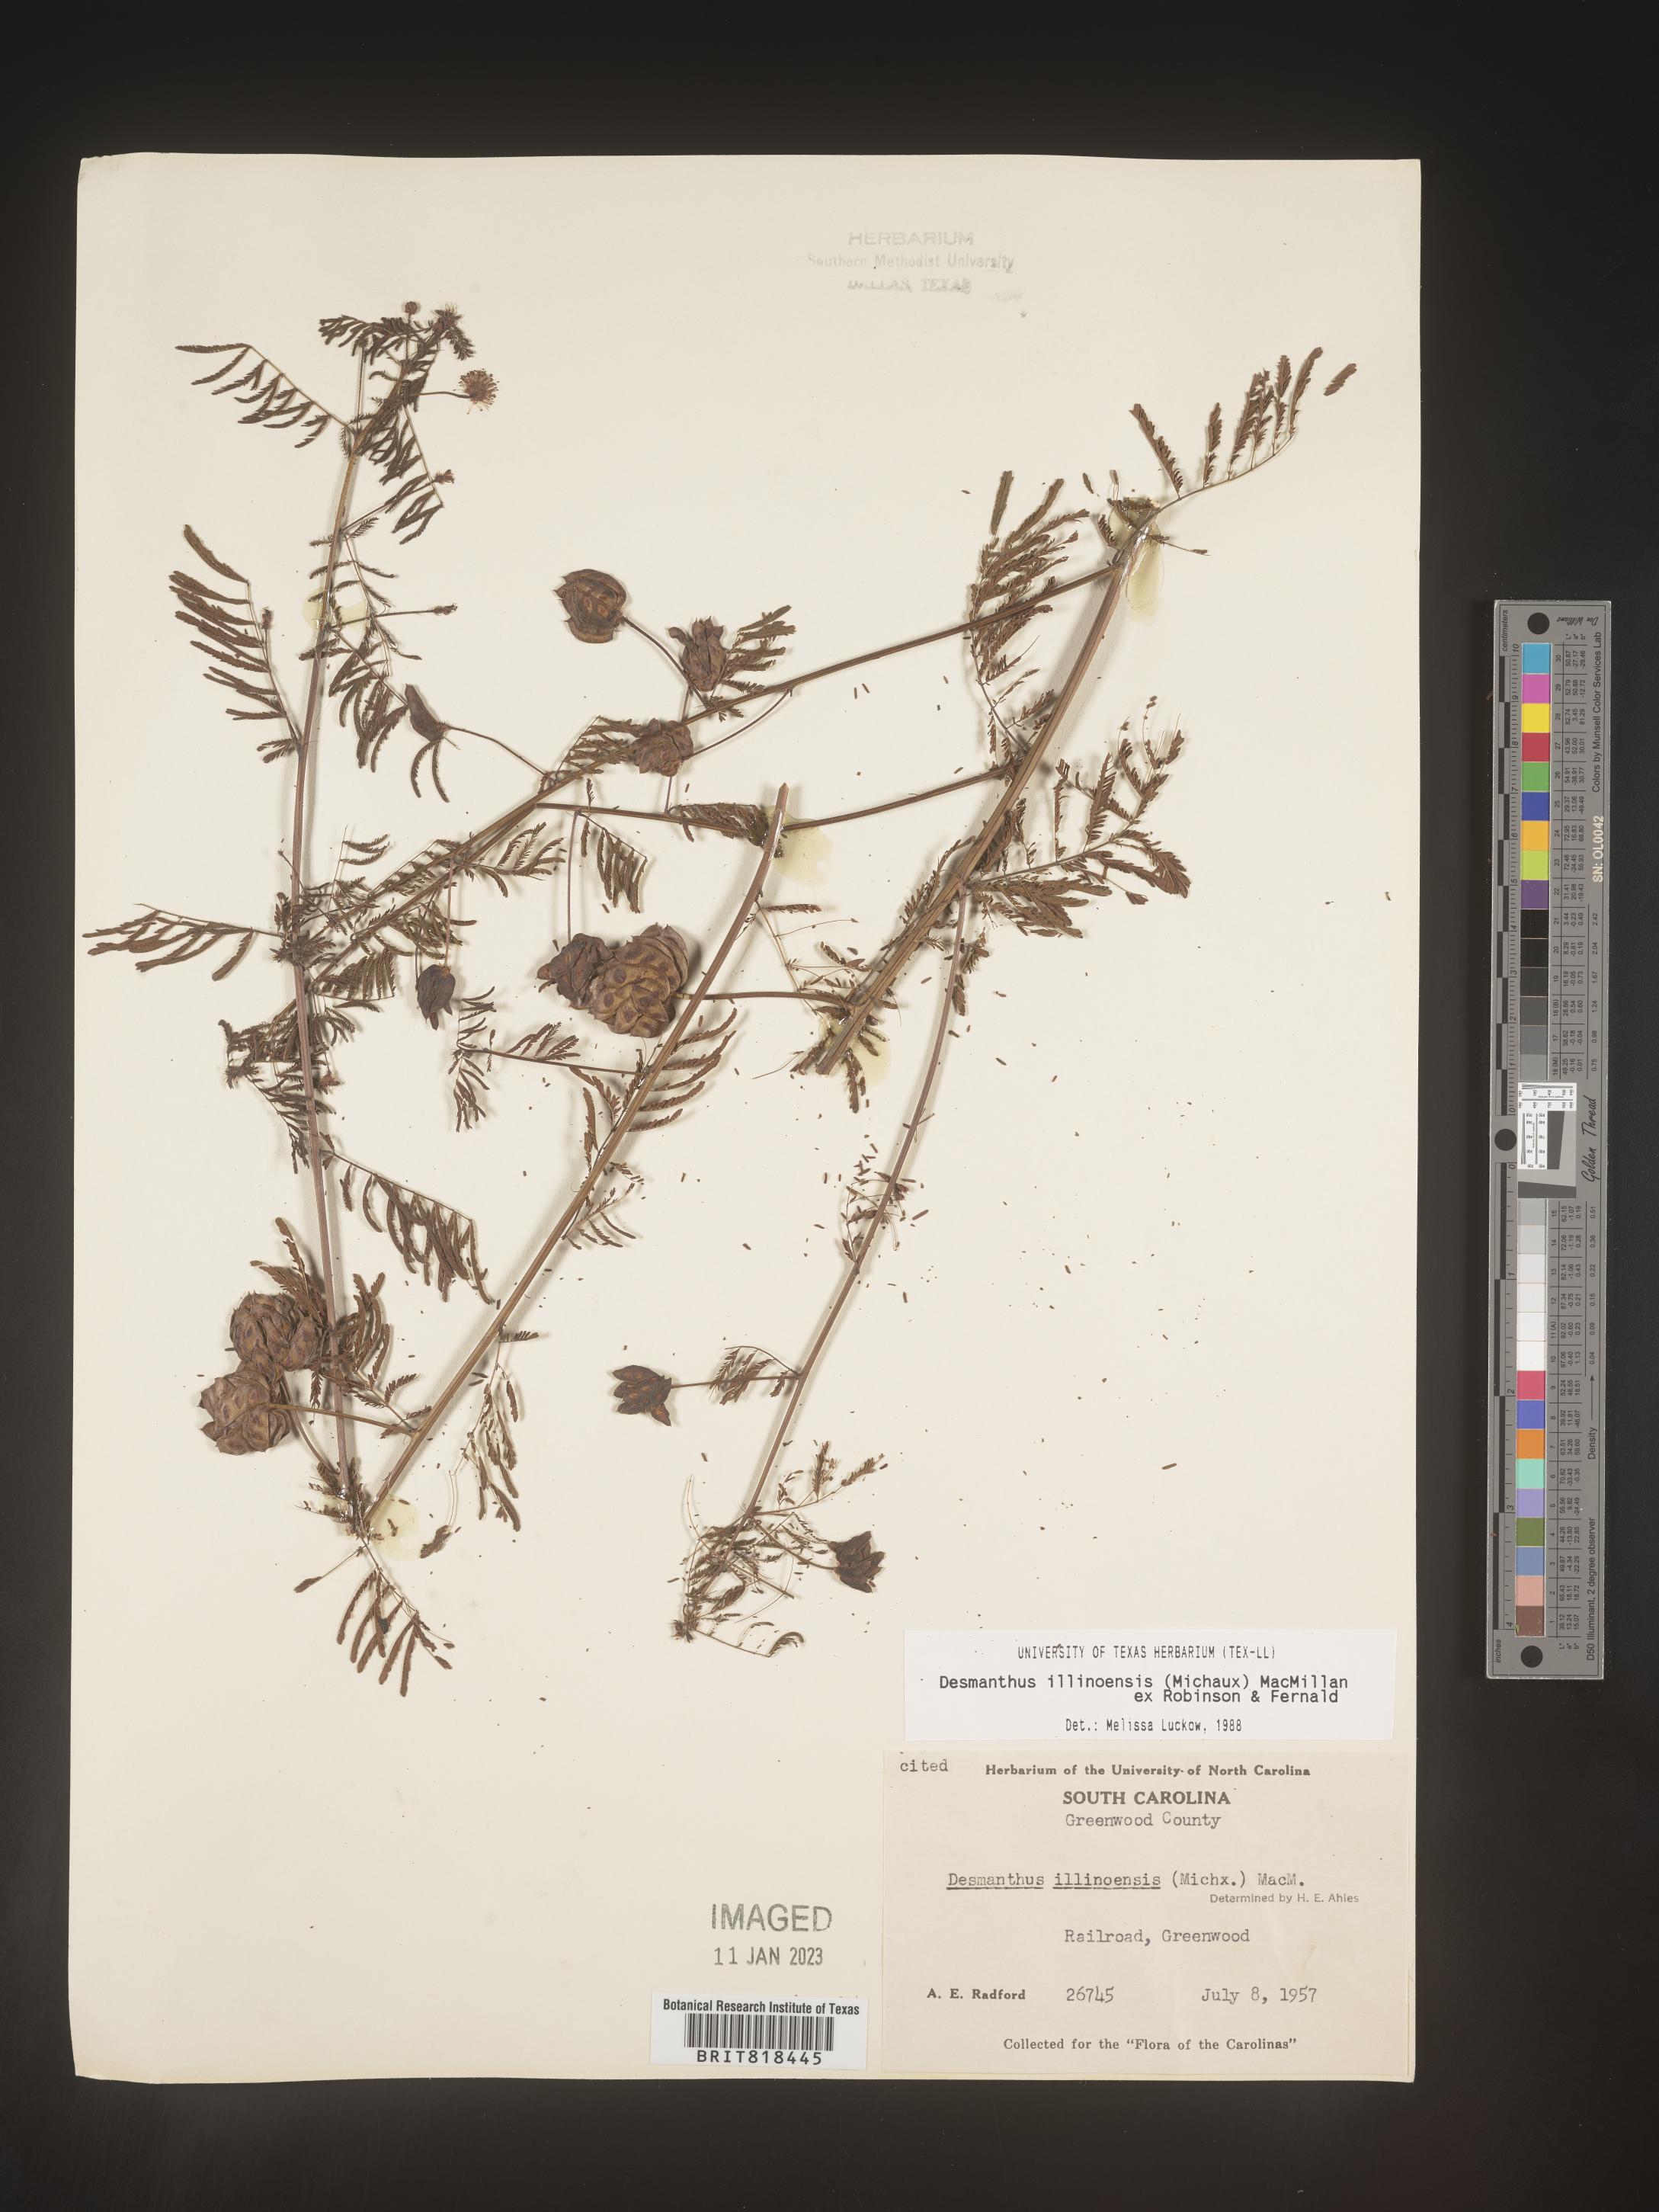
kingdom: Plantae
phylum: Tracheophyta
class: Magnoliopsida
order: Fabales
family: Fabaceae
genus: Desmanthus
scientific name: Desmanthus illinoensis
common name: Illinois bundle-flower
